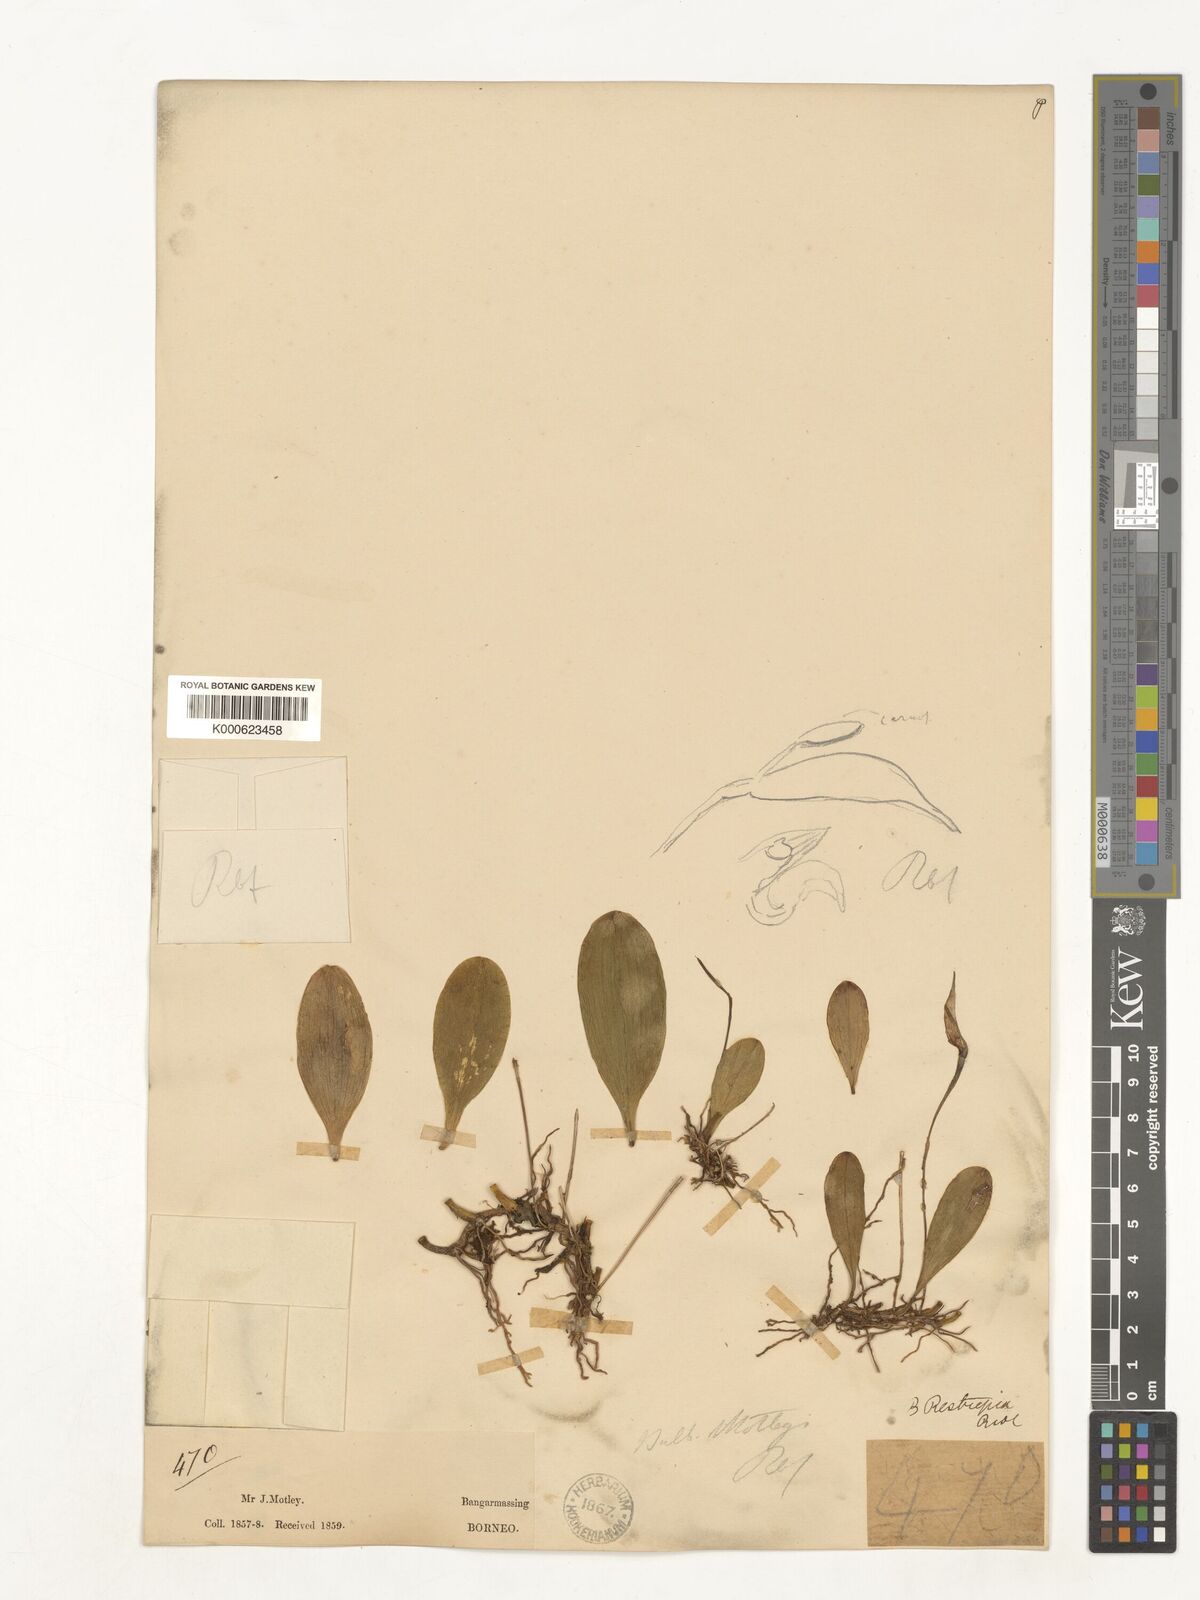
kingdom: Plantae
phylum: Tracheophyta
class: Liliopsida
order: Asparagales
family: Orchidaceae
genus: Bulbophyllum
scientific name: Bulbophyllum restrepia
